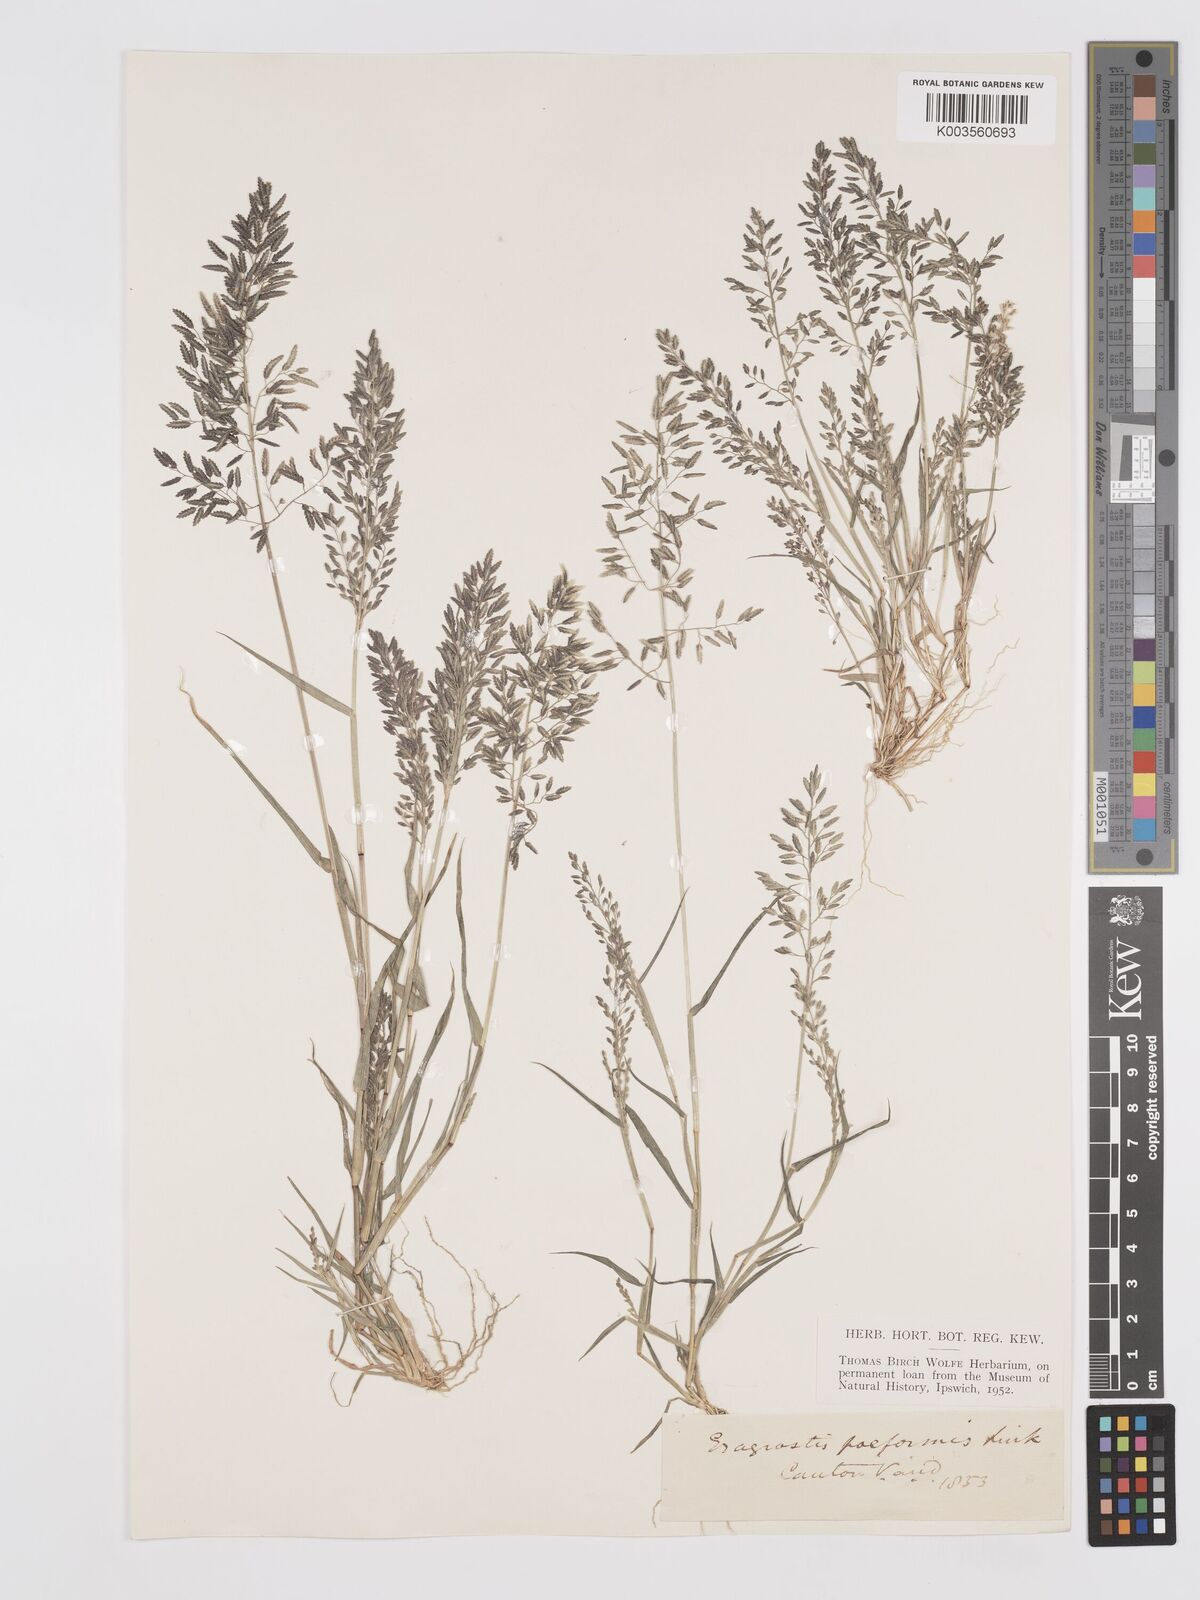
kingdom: Plantae
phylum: Tracheophyta
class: Liliopsida
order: Poales
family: Poaceae
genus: Eragrostis
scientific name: Eragrostis minor
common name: Small love-grass
